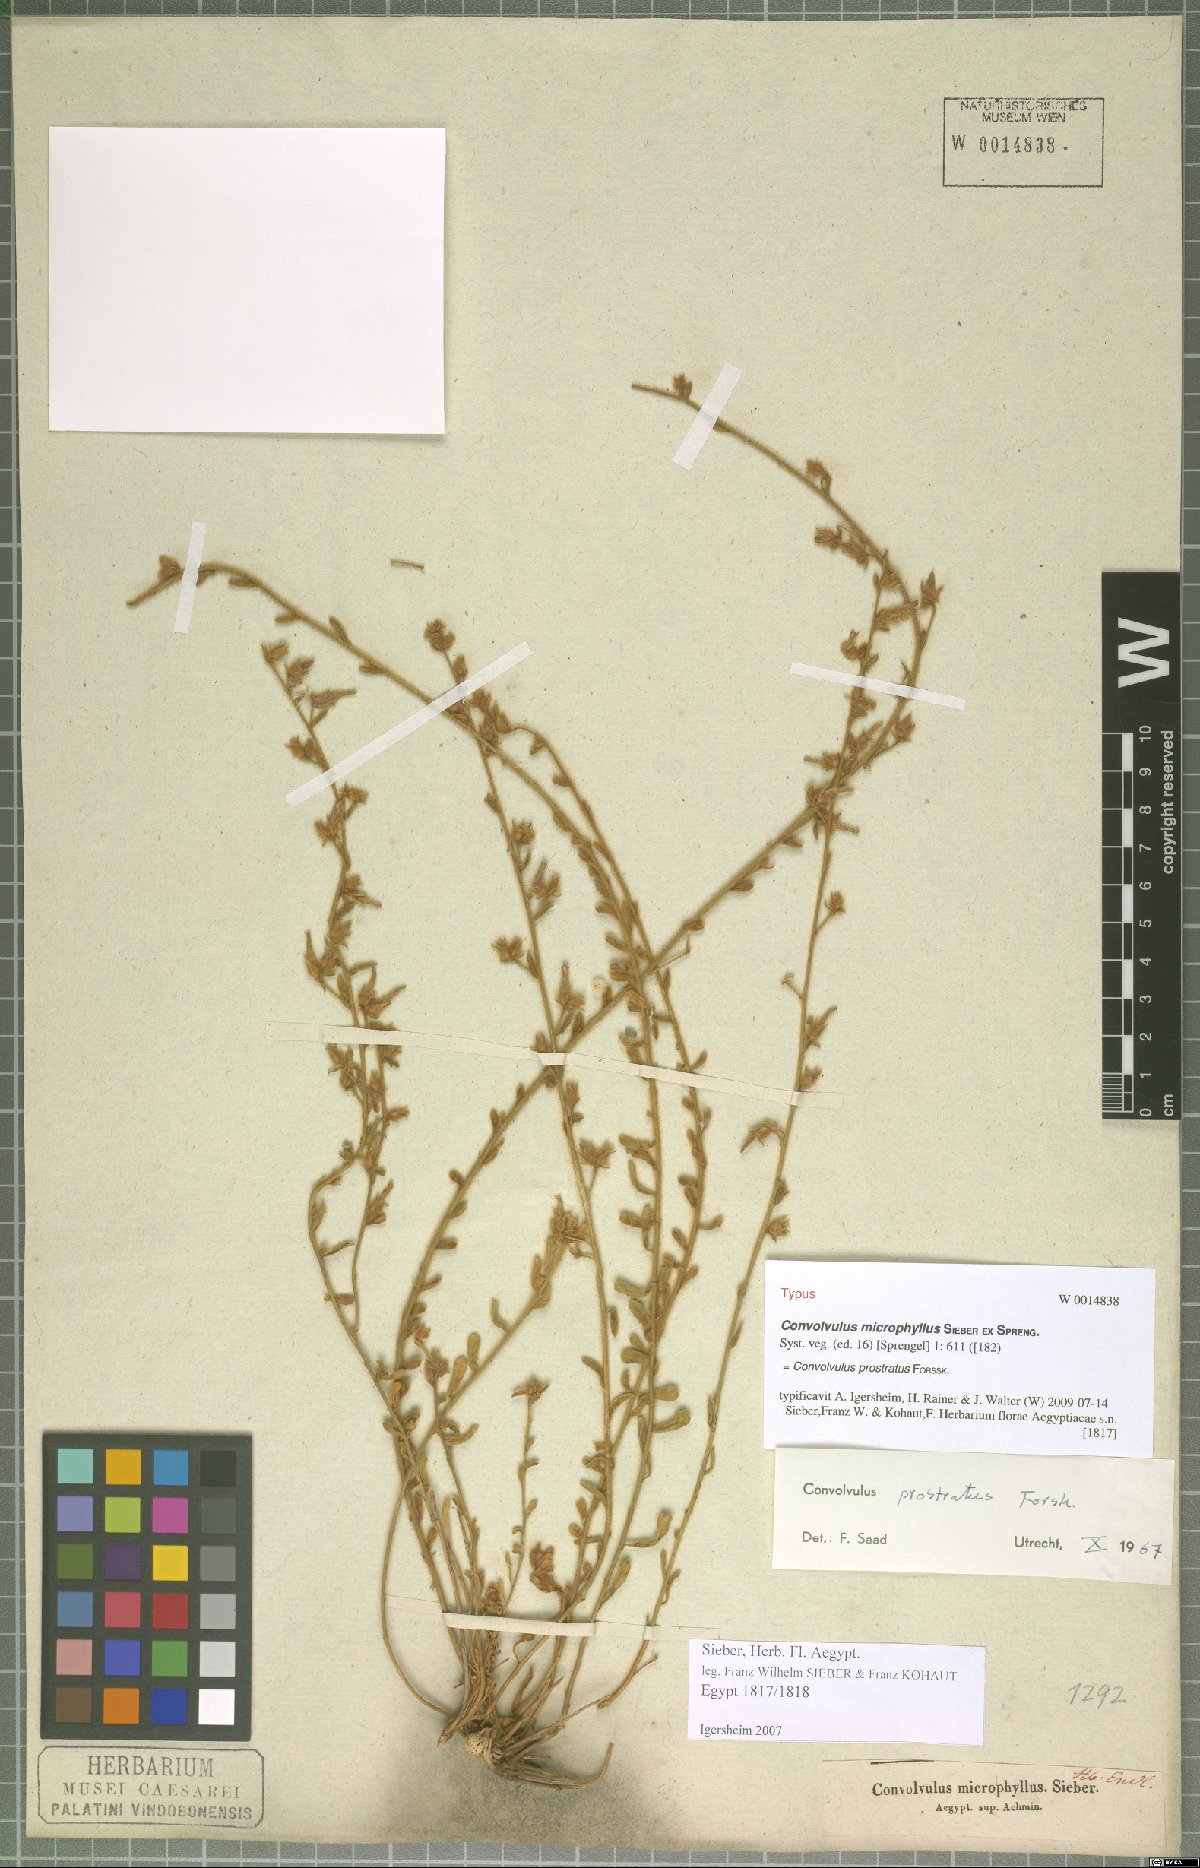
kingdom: Plantae
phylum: Tracheophyta
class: Magnoliopsida
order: Solanales
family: Convolvulaceae
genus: Convolvulus
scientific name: Convolvulus prostratus
